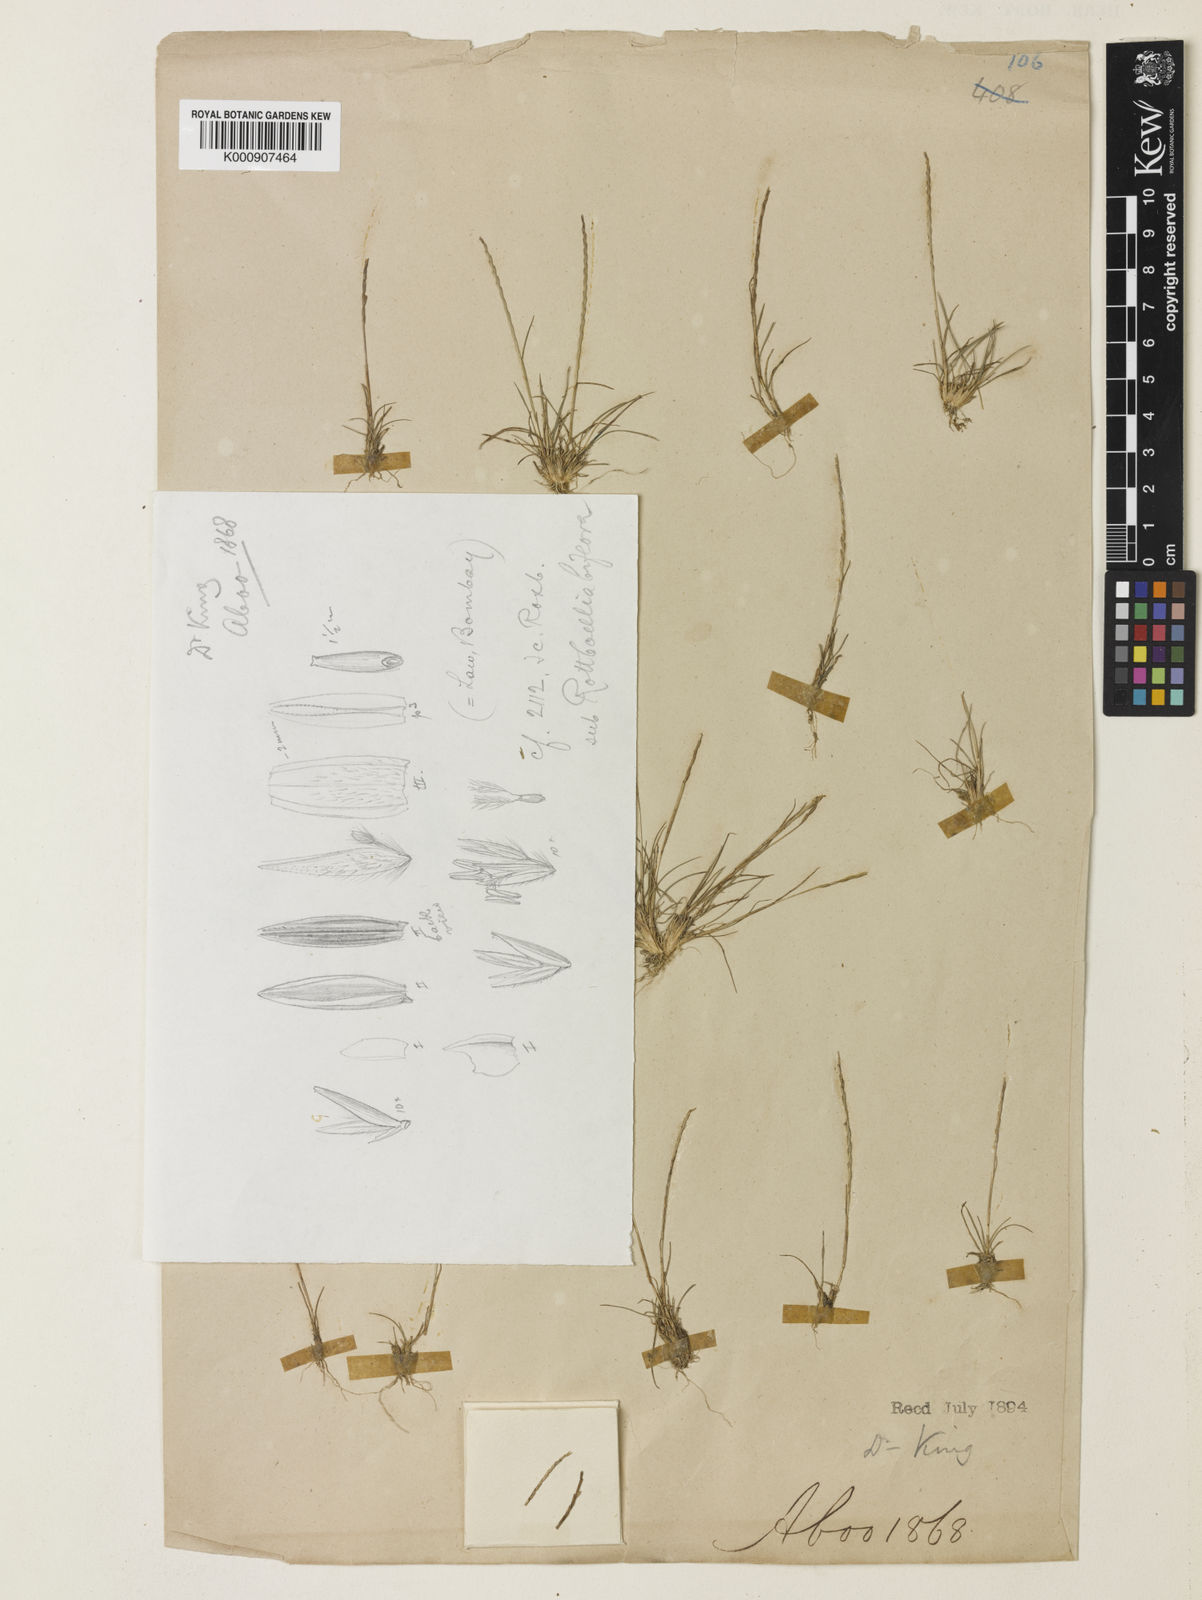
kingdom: Plantae
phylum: Tracheophyta
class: Liliopsida
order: Poales
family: Poaceae
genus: Oropetium
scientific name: Oropetium roxburghianum
